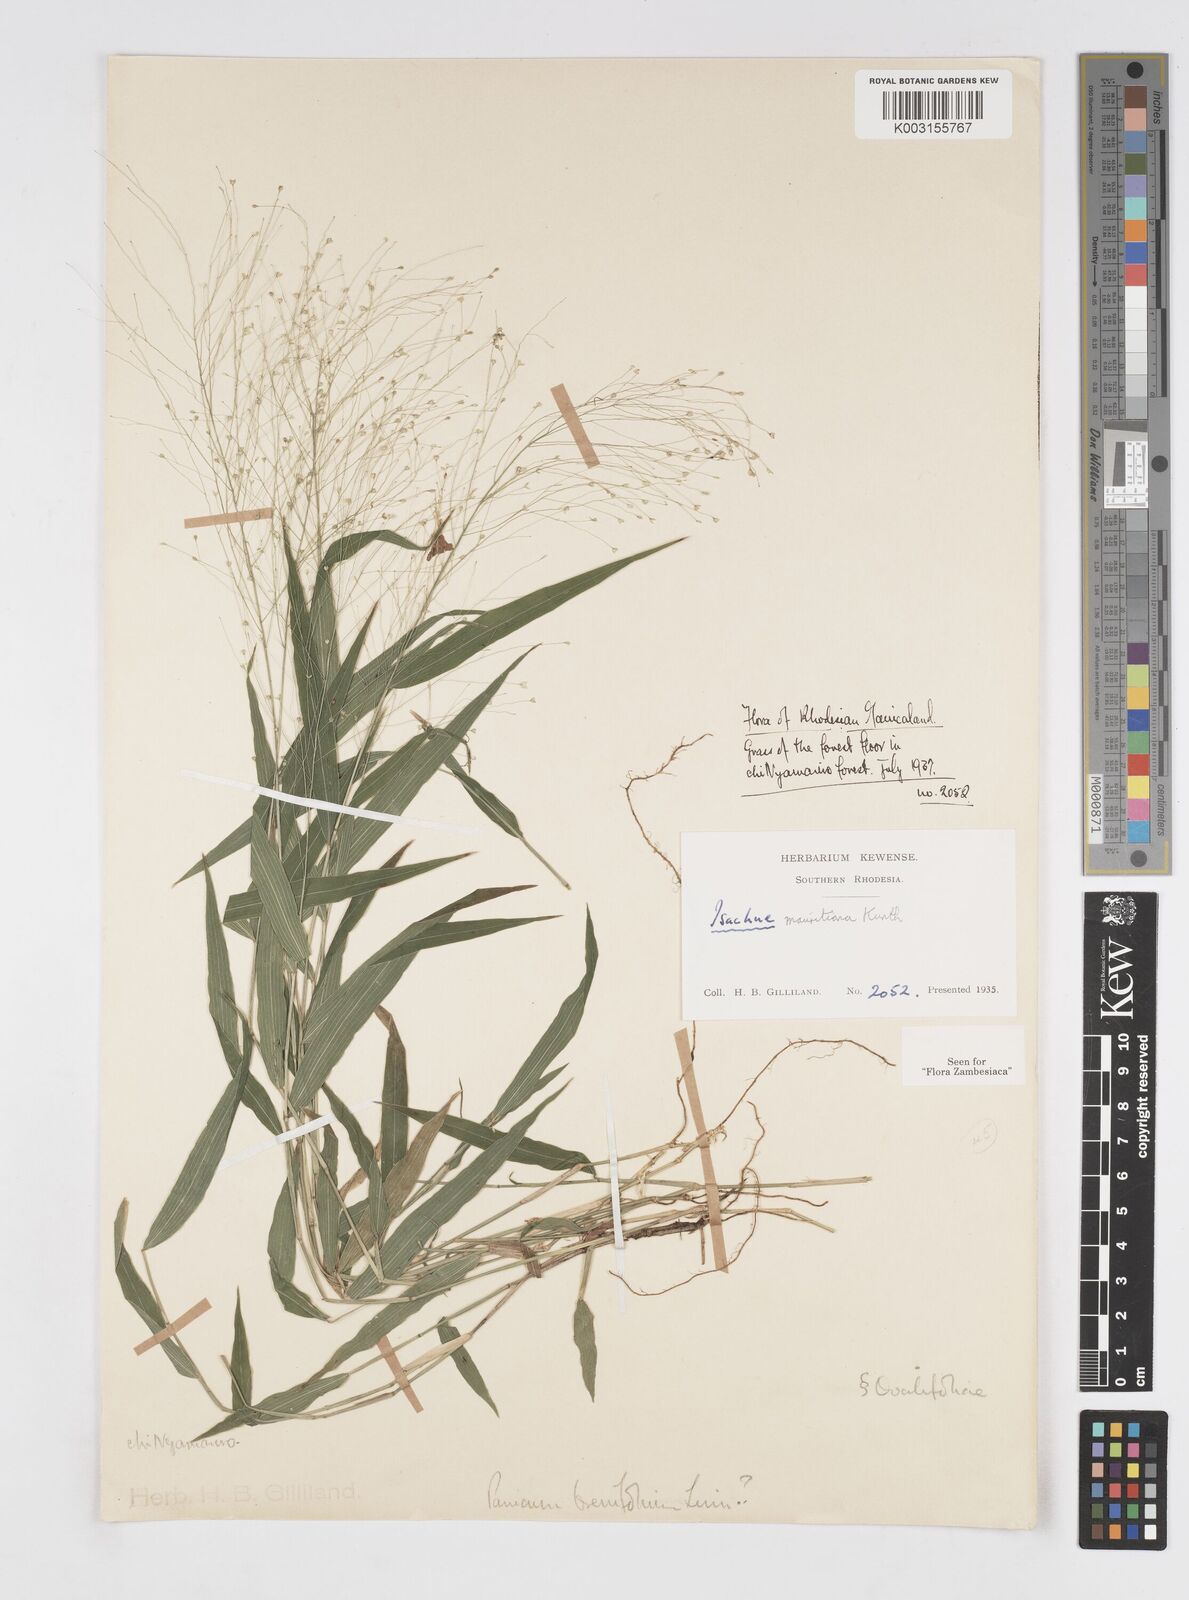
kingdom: Plantae
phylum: Tracheophyta
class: Liliopsida
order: Poales
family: Poaceae
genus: Isachne
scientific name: Isachne mauritiana
